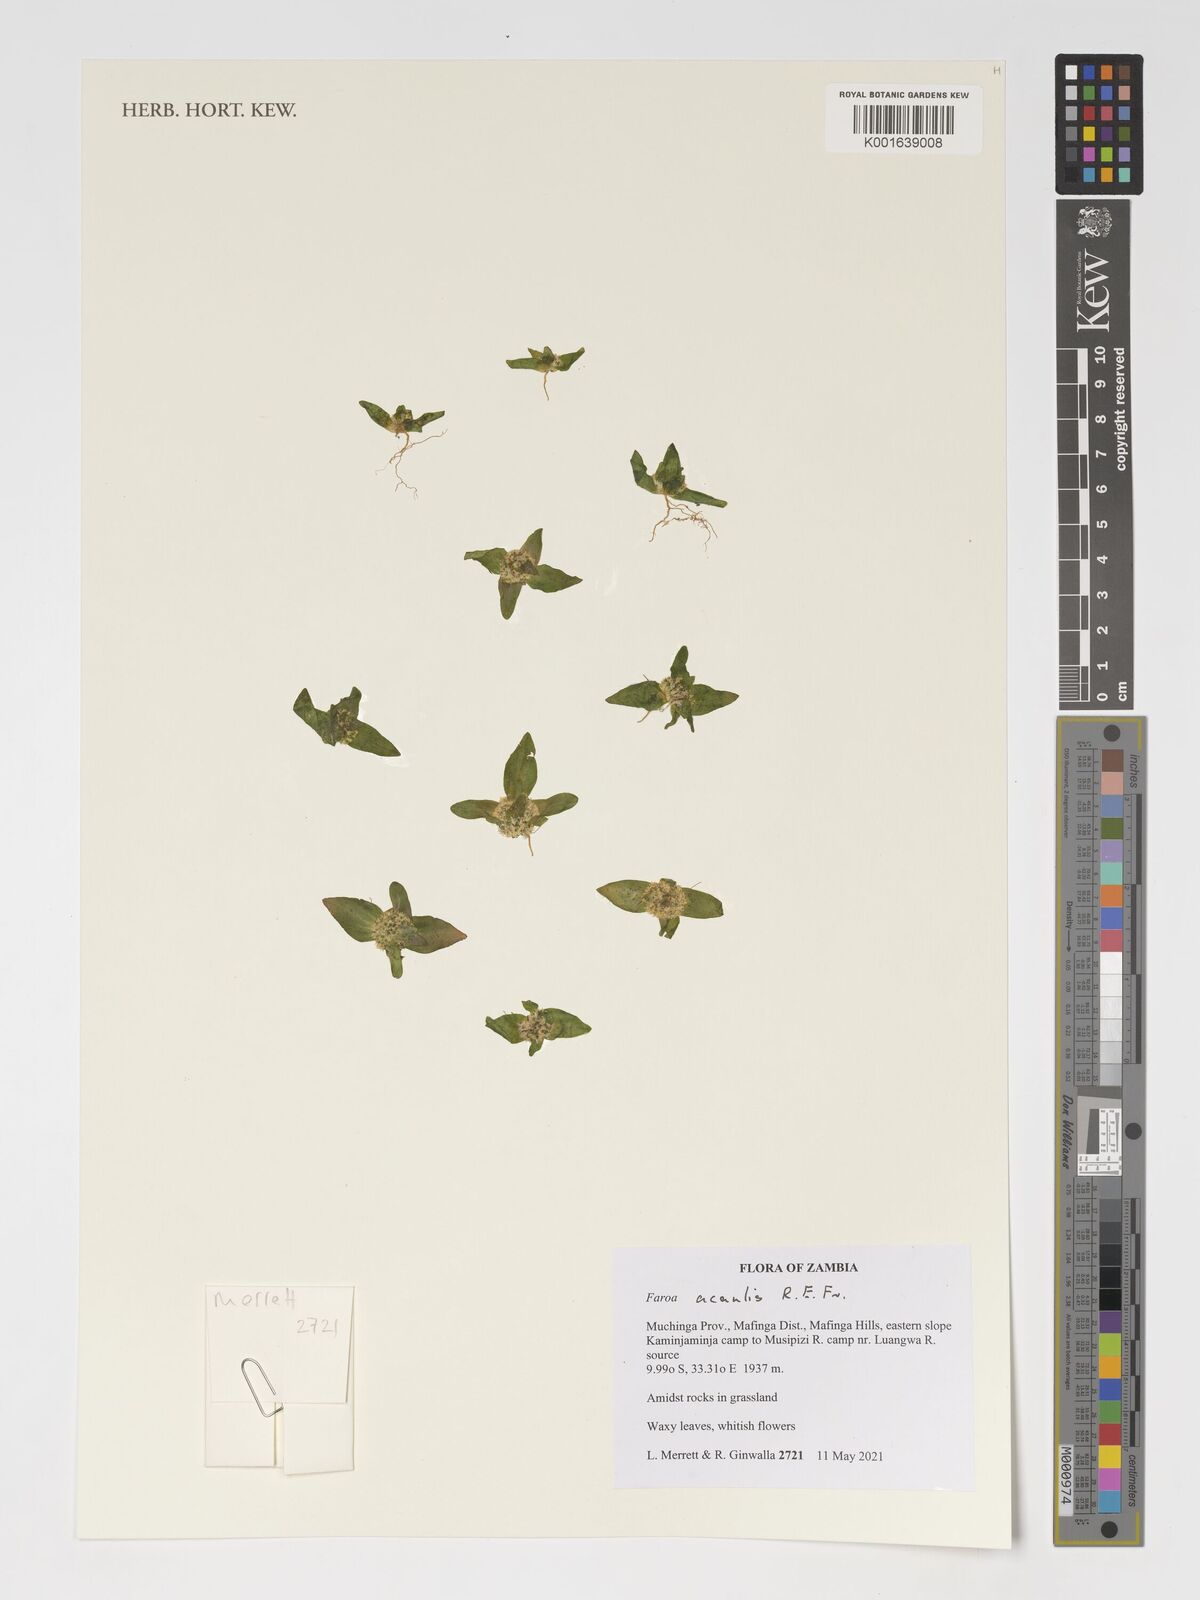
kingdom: Plantae
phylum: Tracheophyta
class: Magnoliopsida
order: Gentianales
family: Gentianaceae
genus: Faroa
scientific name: Faroa acaulis
